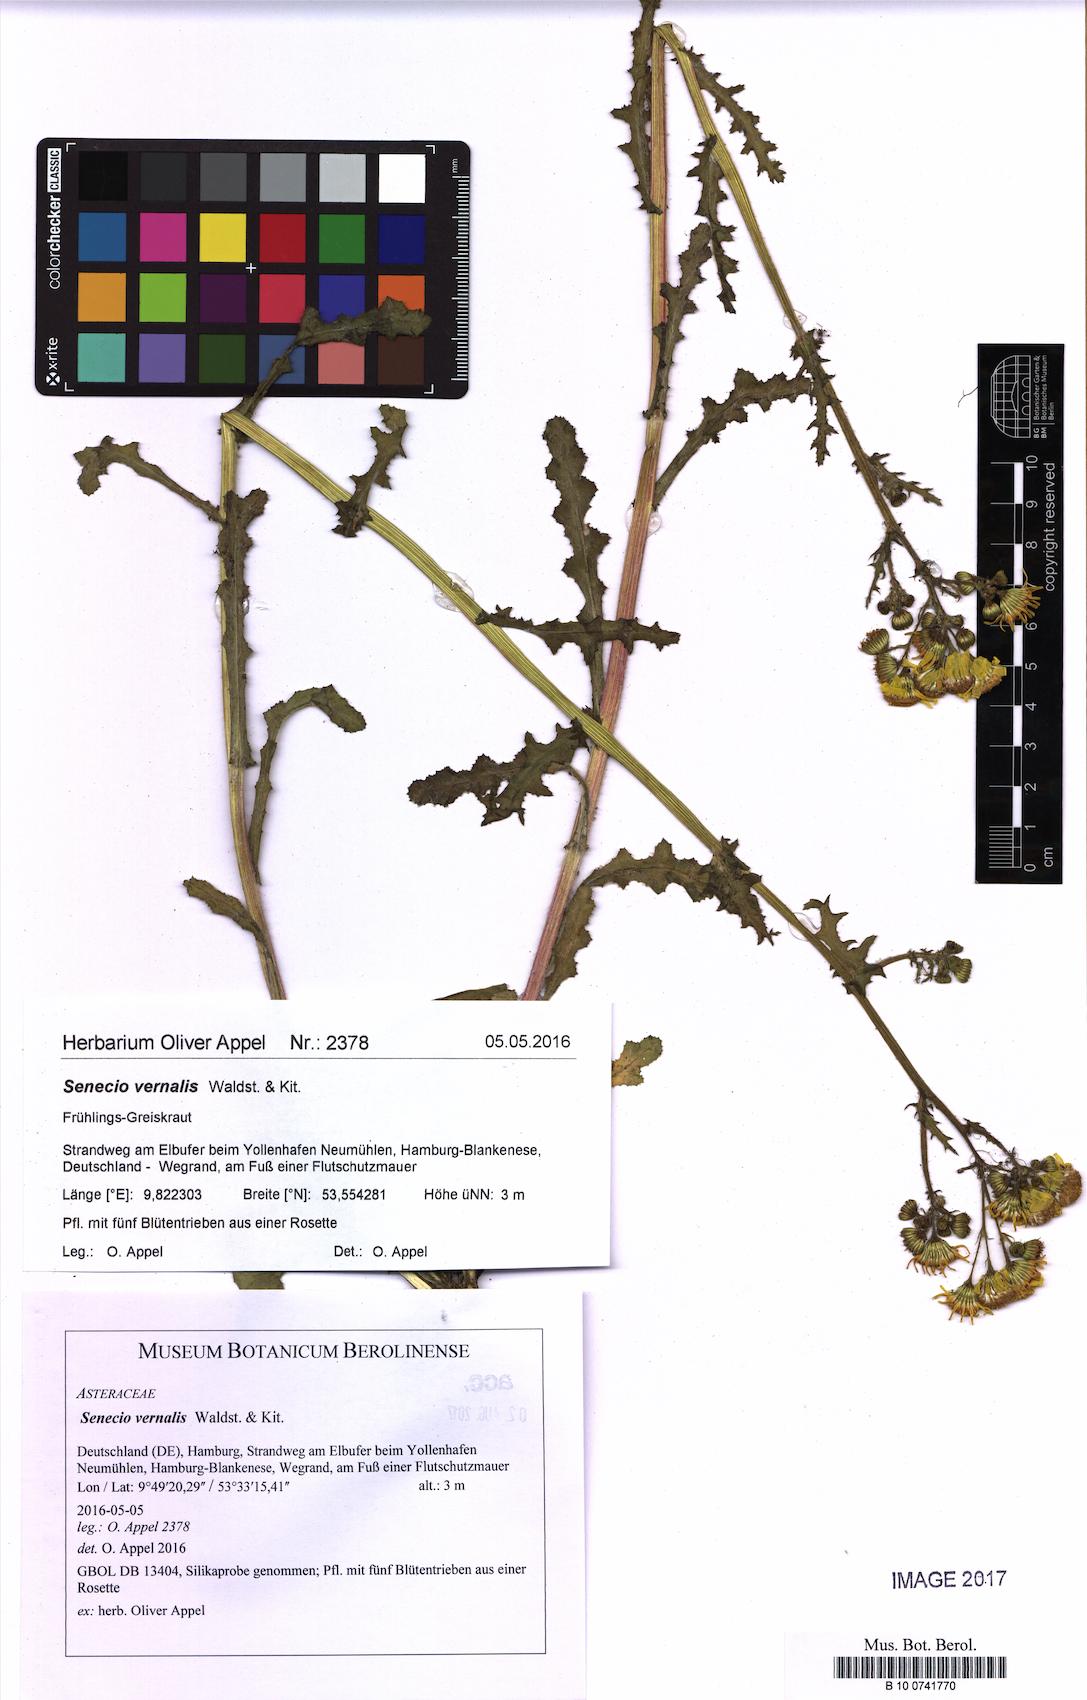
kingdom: Plantae
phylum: Tracheophyta
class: Magnoliopsida
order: Asterales
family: Asteraceae
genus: Senecio
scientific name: Senecio vernalis
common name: Eastern groundsel
